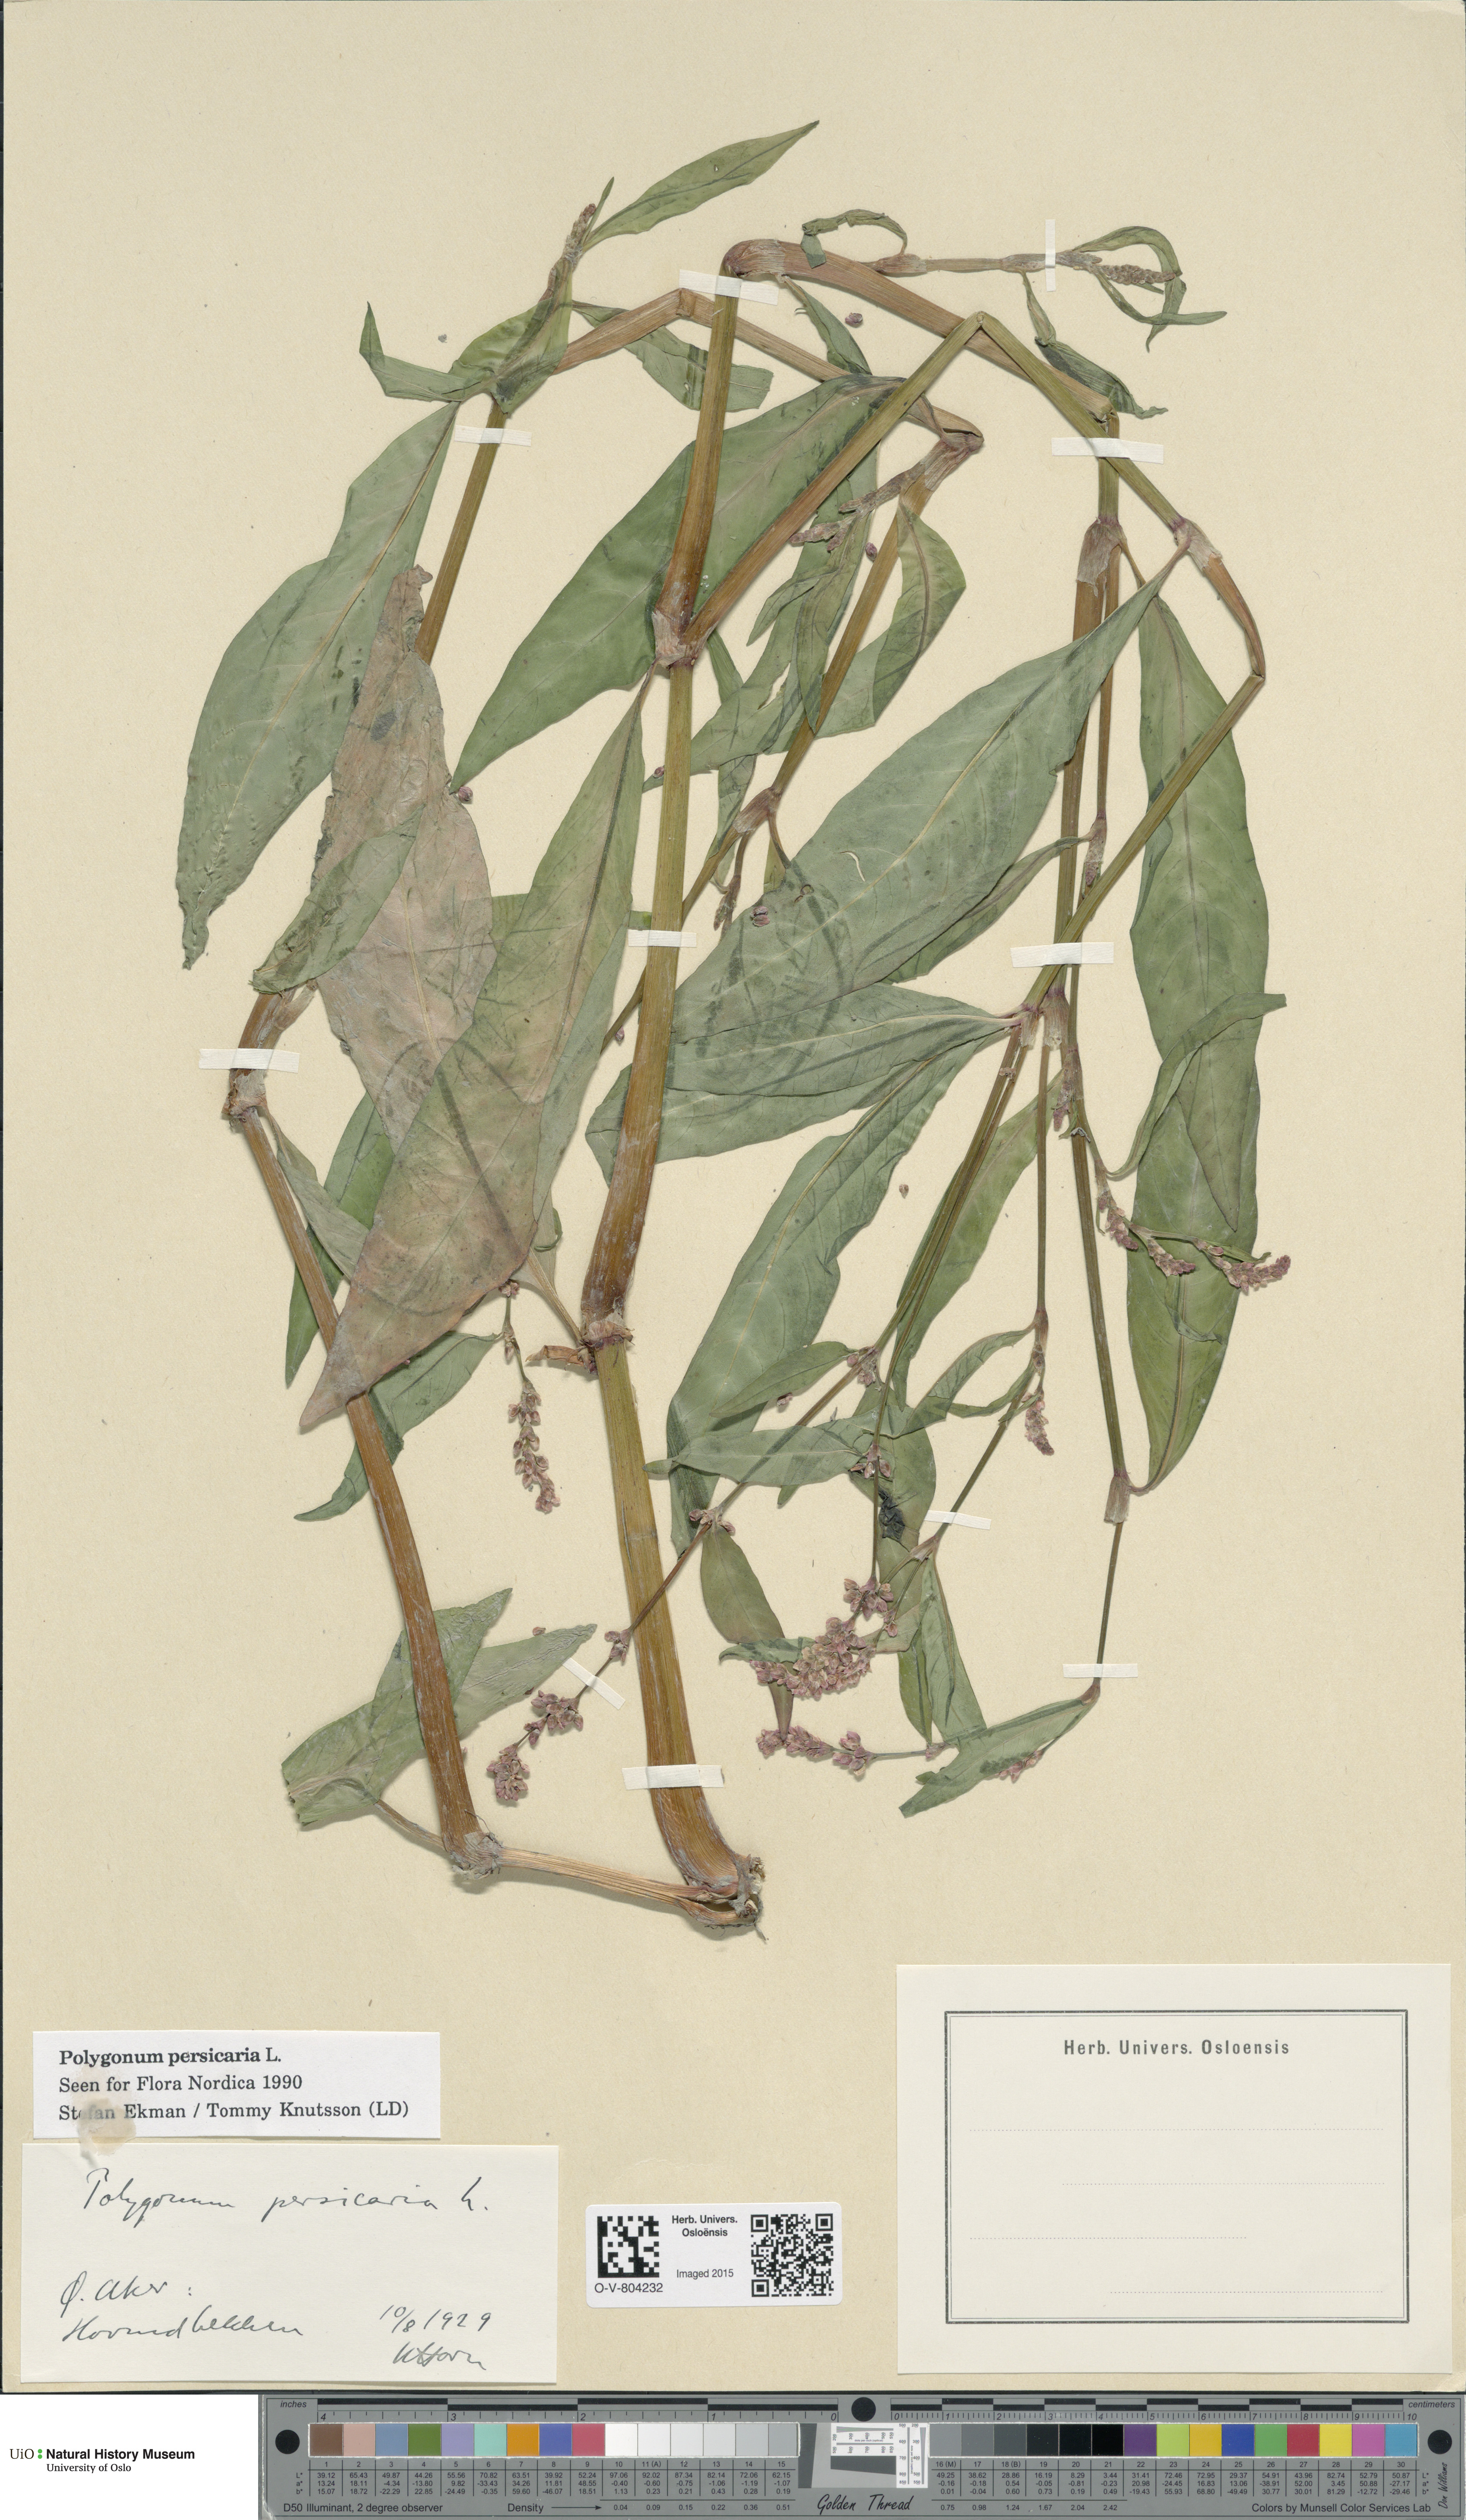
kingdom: Plantae
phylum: Tracheophyta
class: Magnoliopsida
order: Caryophyllales
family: Polygonaceae
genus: Persicaria
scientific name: Persicaria maculosa
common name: Redshank
